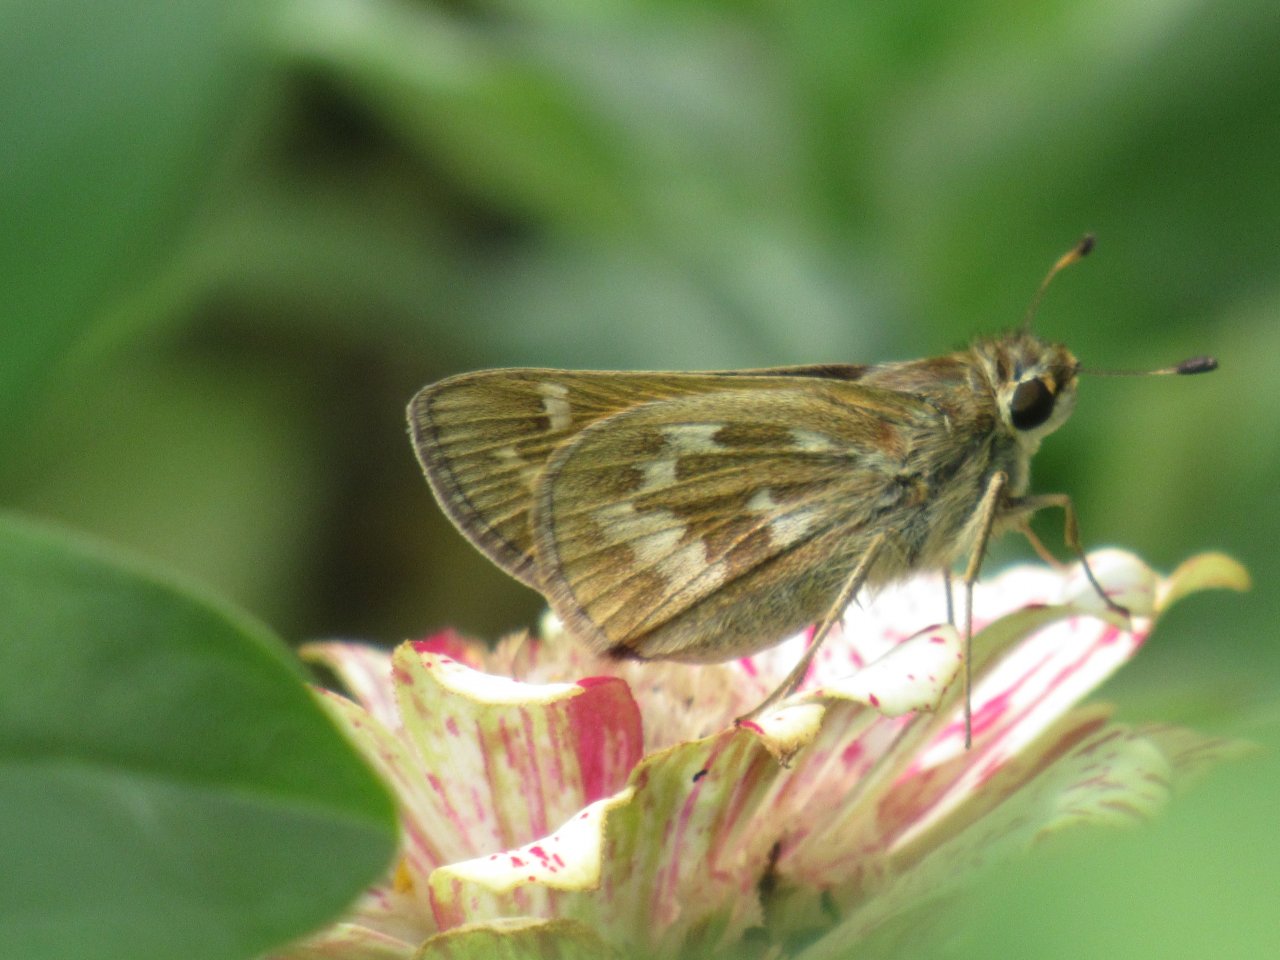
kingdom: Animalia
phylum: Arthropoda
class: Insecta
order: Lepidoptera
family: Hesperiidae
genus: Atalopedes
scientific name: Atalopedes campestris
